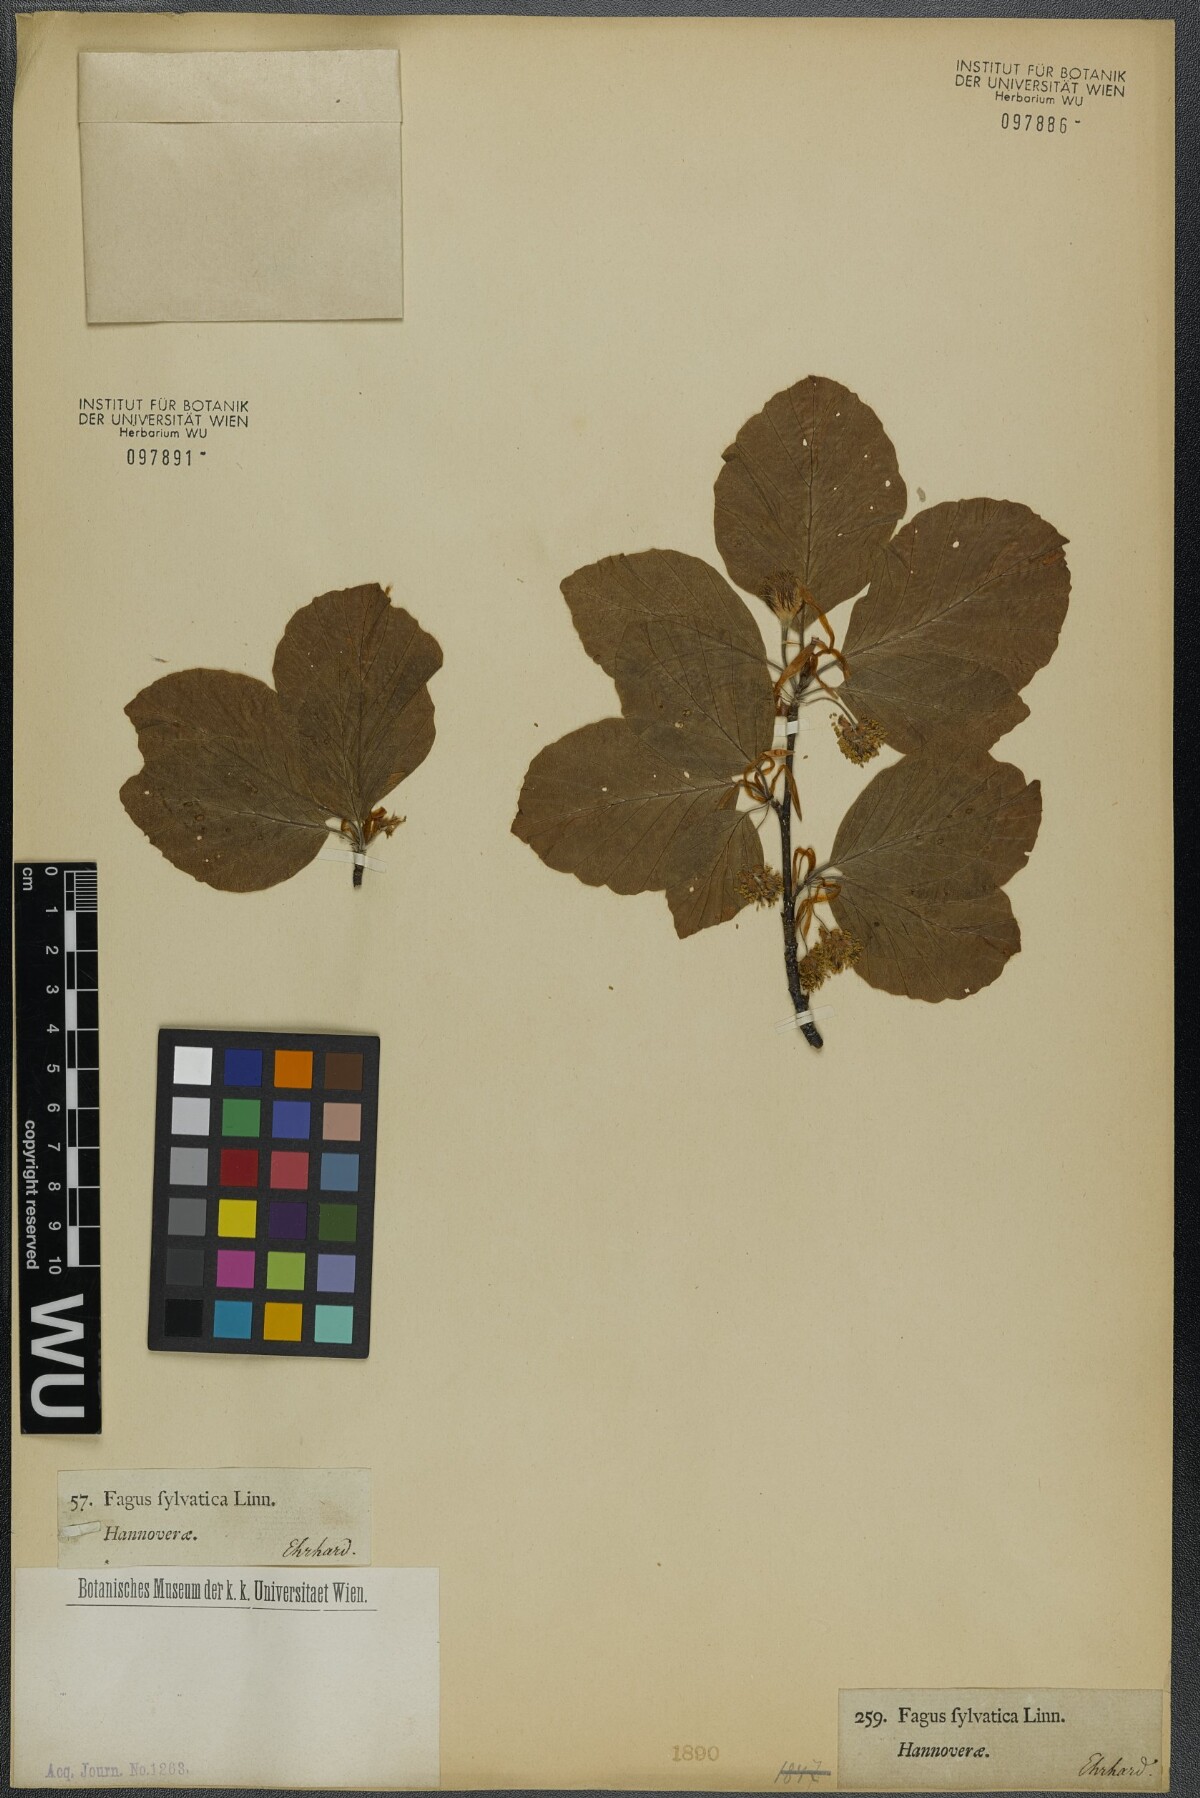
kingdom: Plantae
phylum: Tracheophyta
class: Magnoliopsida
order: Fagales
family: Fagaceae
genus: Fagus
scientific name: Fagus sylvatica
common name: Beech
